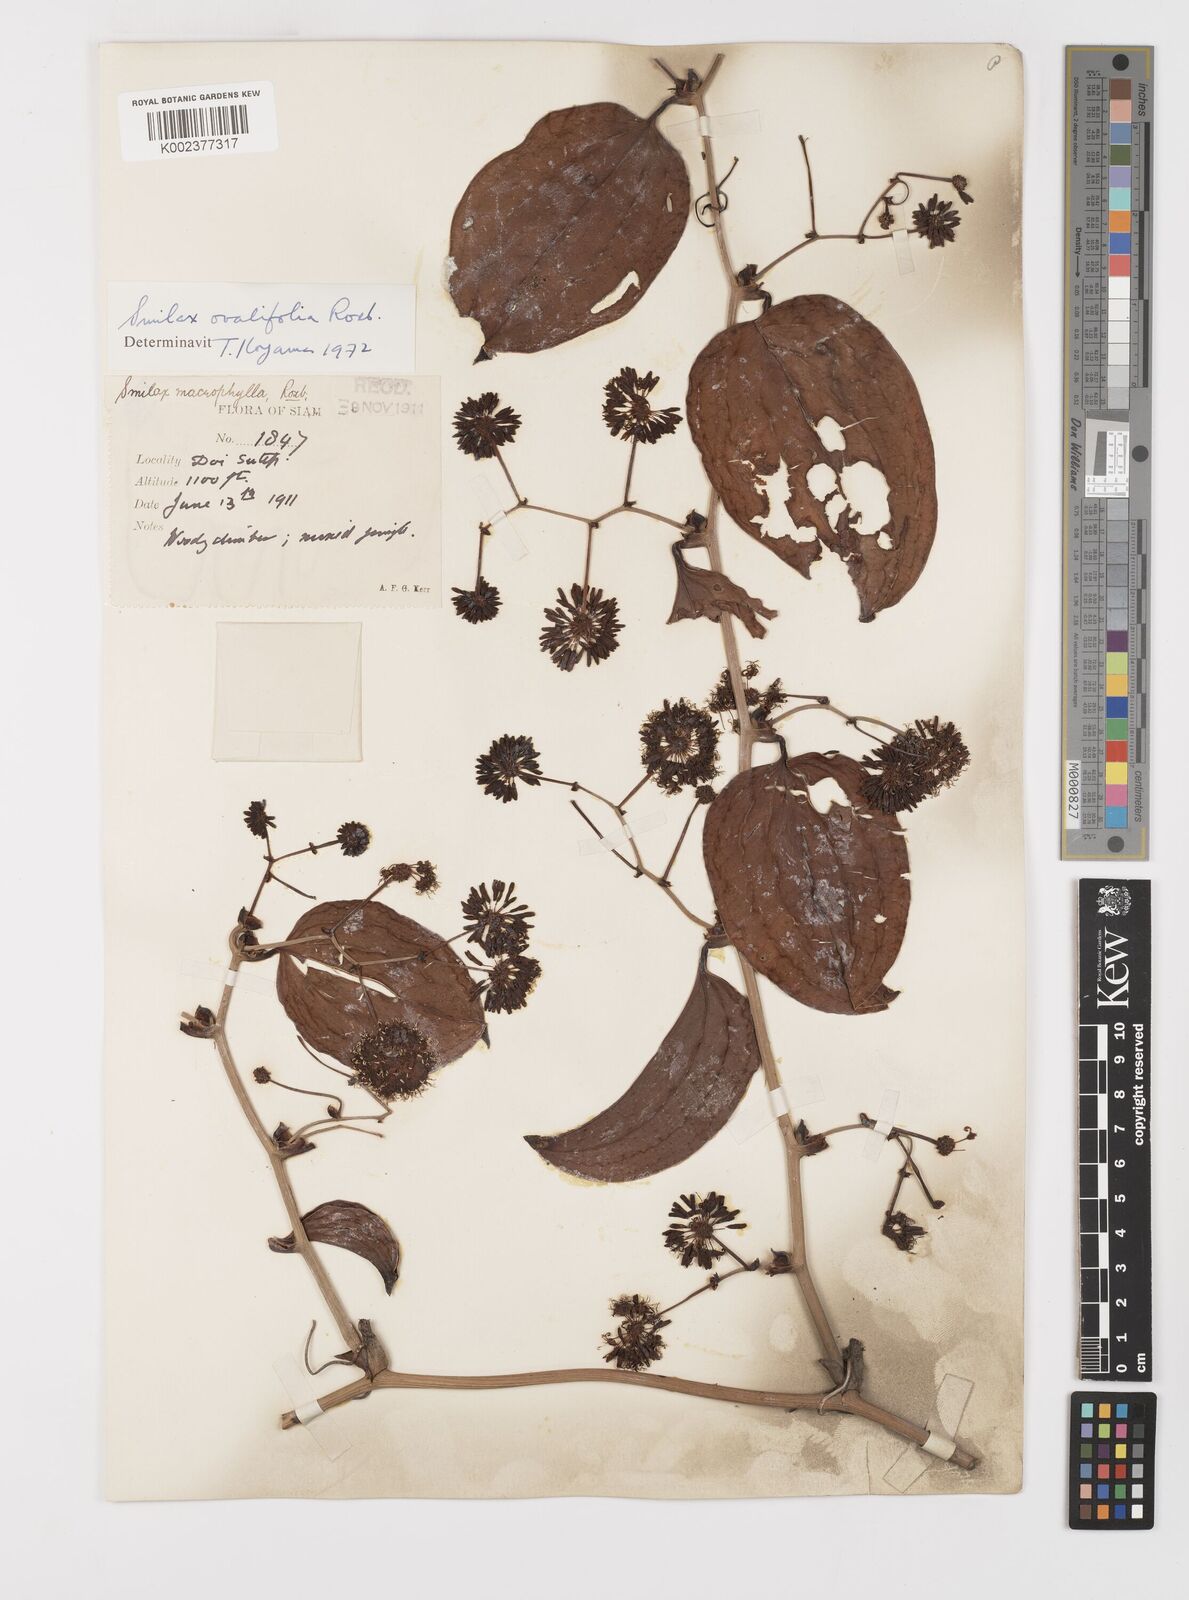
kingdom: Plantae
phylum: Tracheophyta
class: Liliopsida
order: Liliales
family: Smilacaceae
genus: Smilax
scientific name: Smilax ovalifolia
